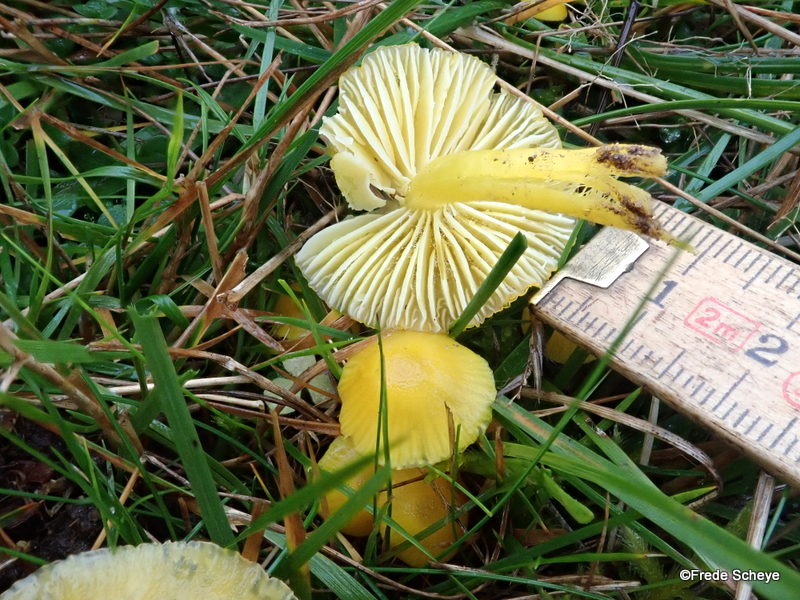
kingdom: Fungi
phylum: Basidiomycota
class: Agaricomycetes
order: Agaricales
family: Hygrophoraceae
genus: Hygrocybe
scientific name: Hygrocybe ceracea
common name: voksgul vokshat
